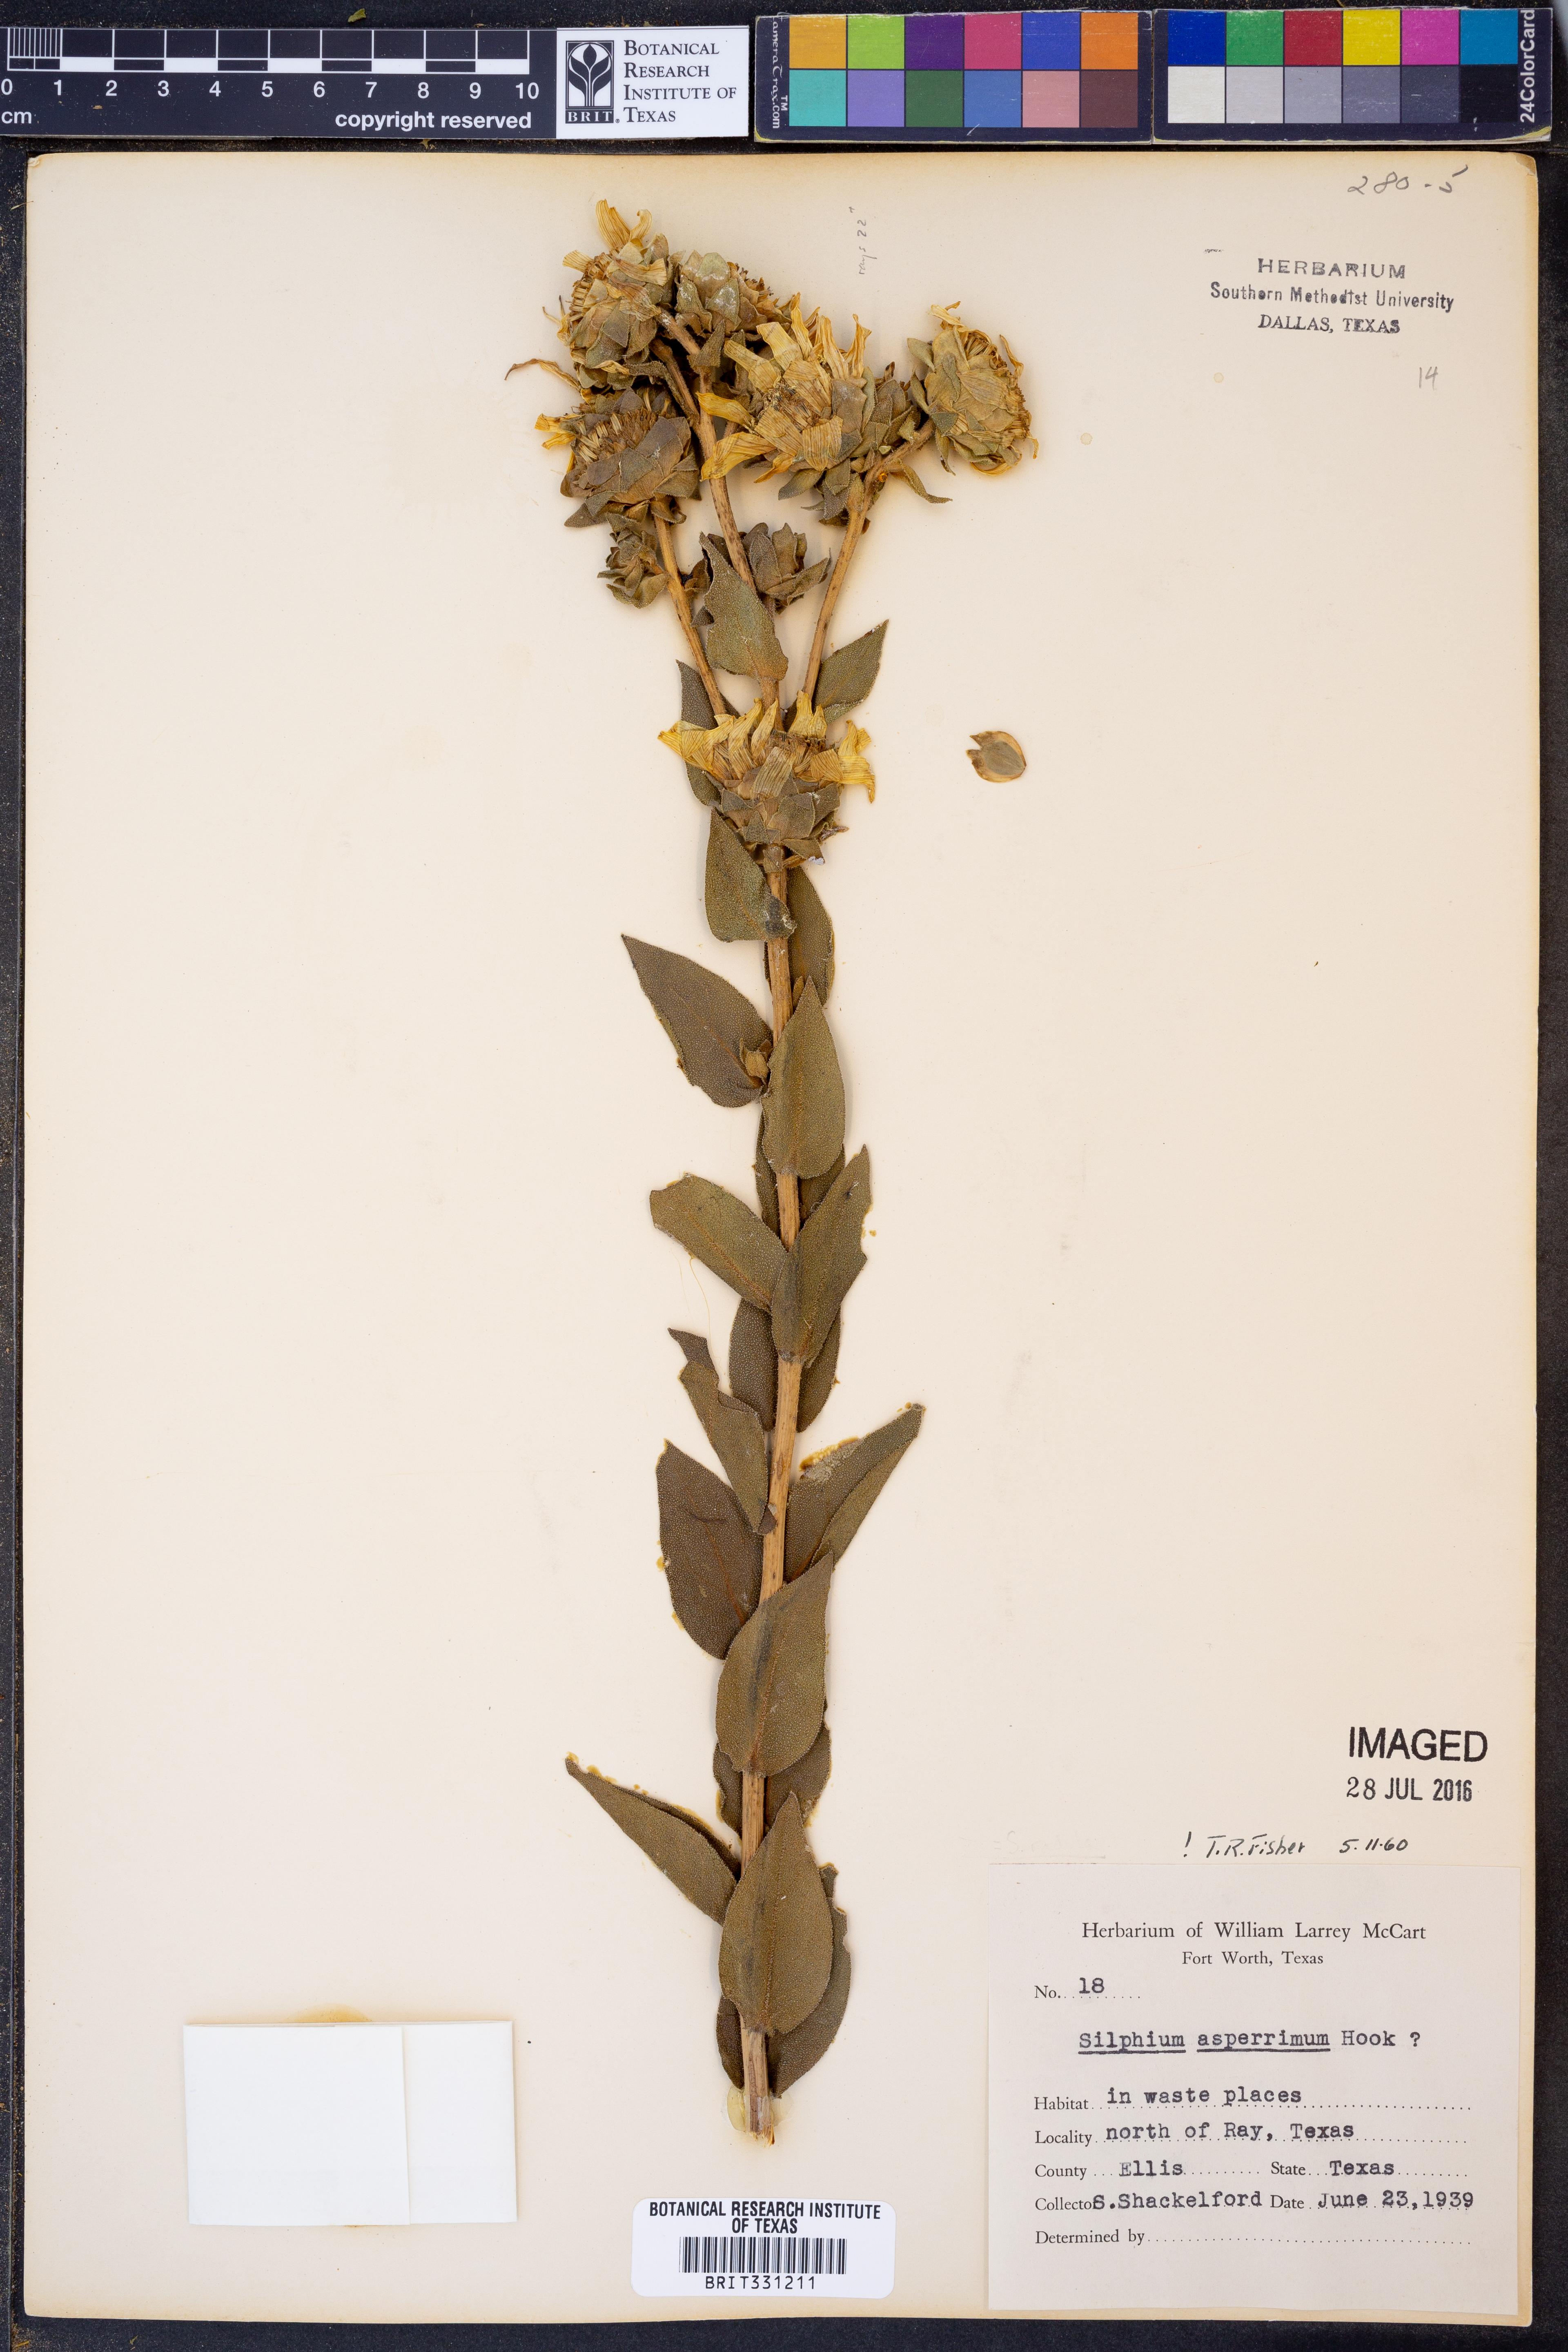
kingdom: Plantae
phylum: Tracheophyta
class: Magnoliopsida
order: Asterales
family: Asteraceae
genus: Silphium
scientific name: Silphium asperrimum
